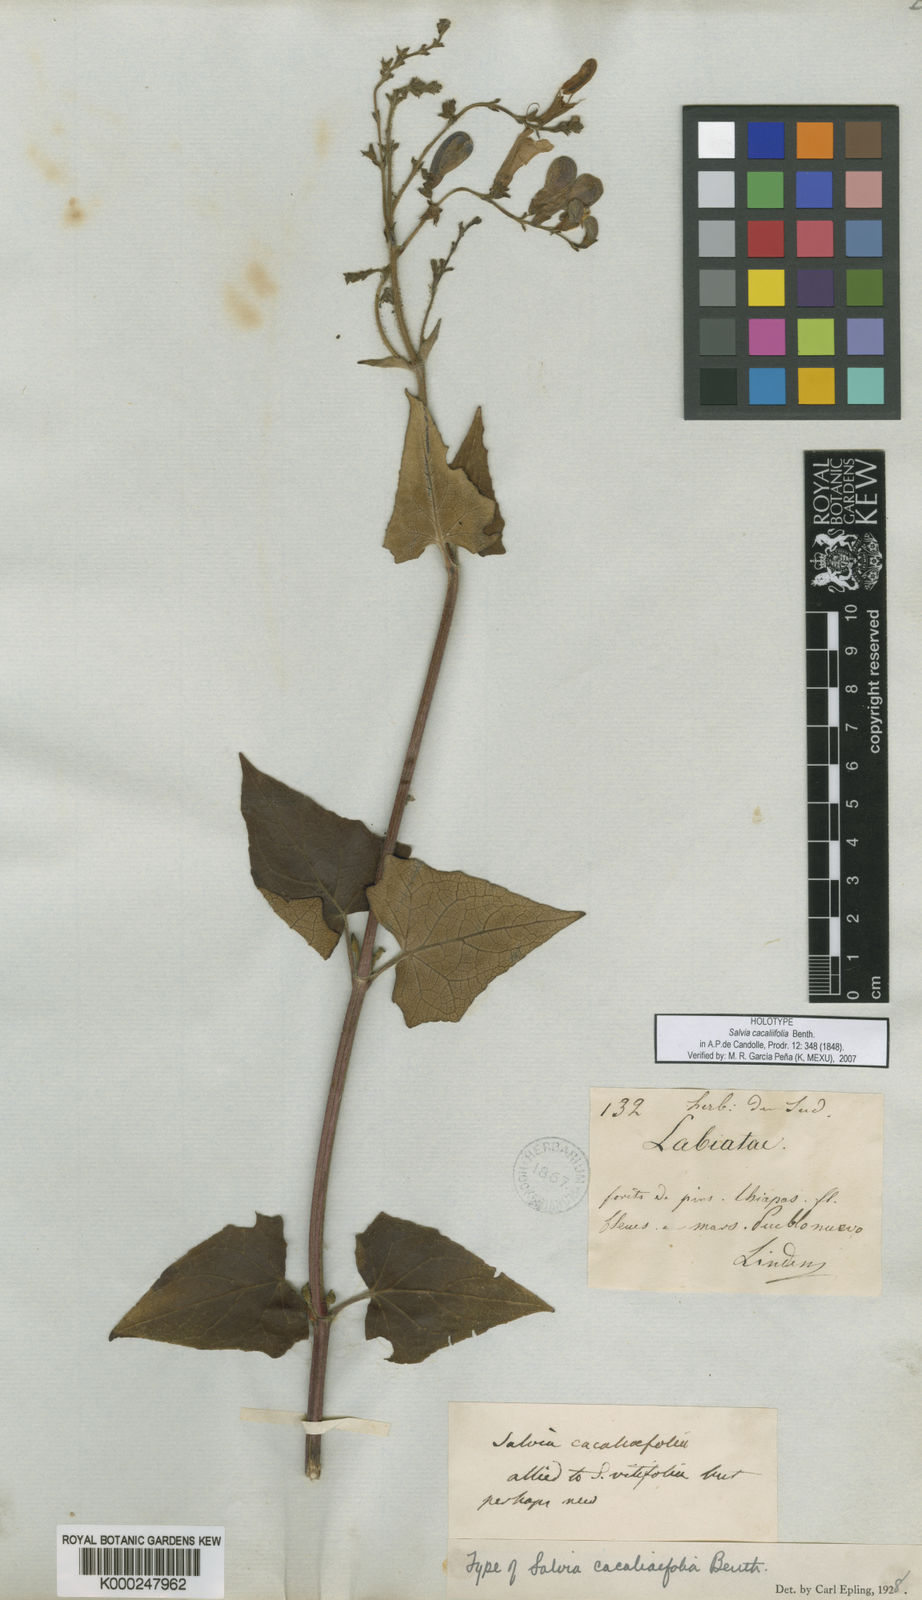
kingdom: Plantae
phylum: Tracheophyta
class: Magnoliopsida
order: Lamiales
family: Lamiaceae
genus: Salvia
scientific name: Salvia
